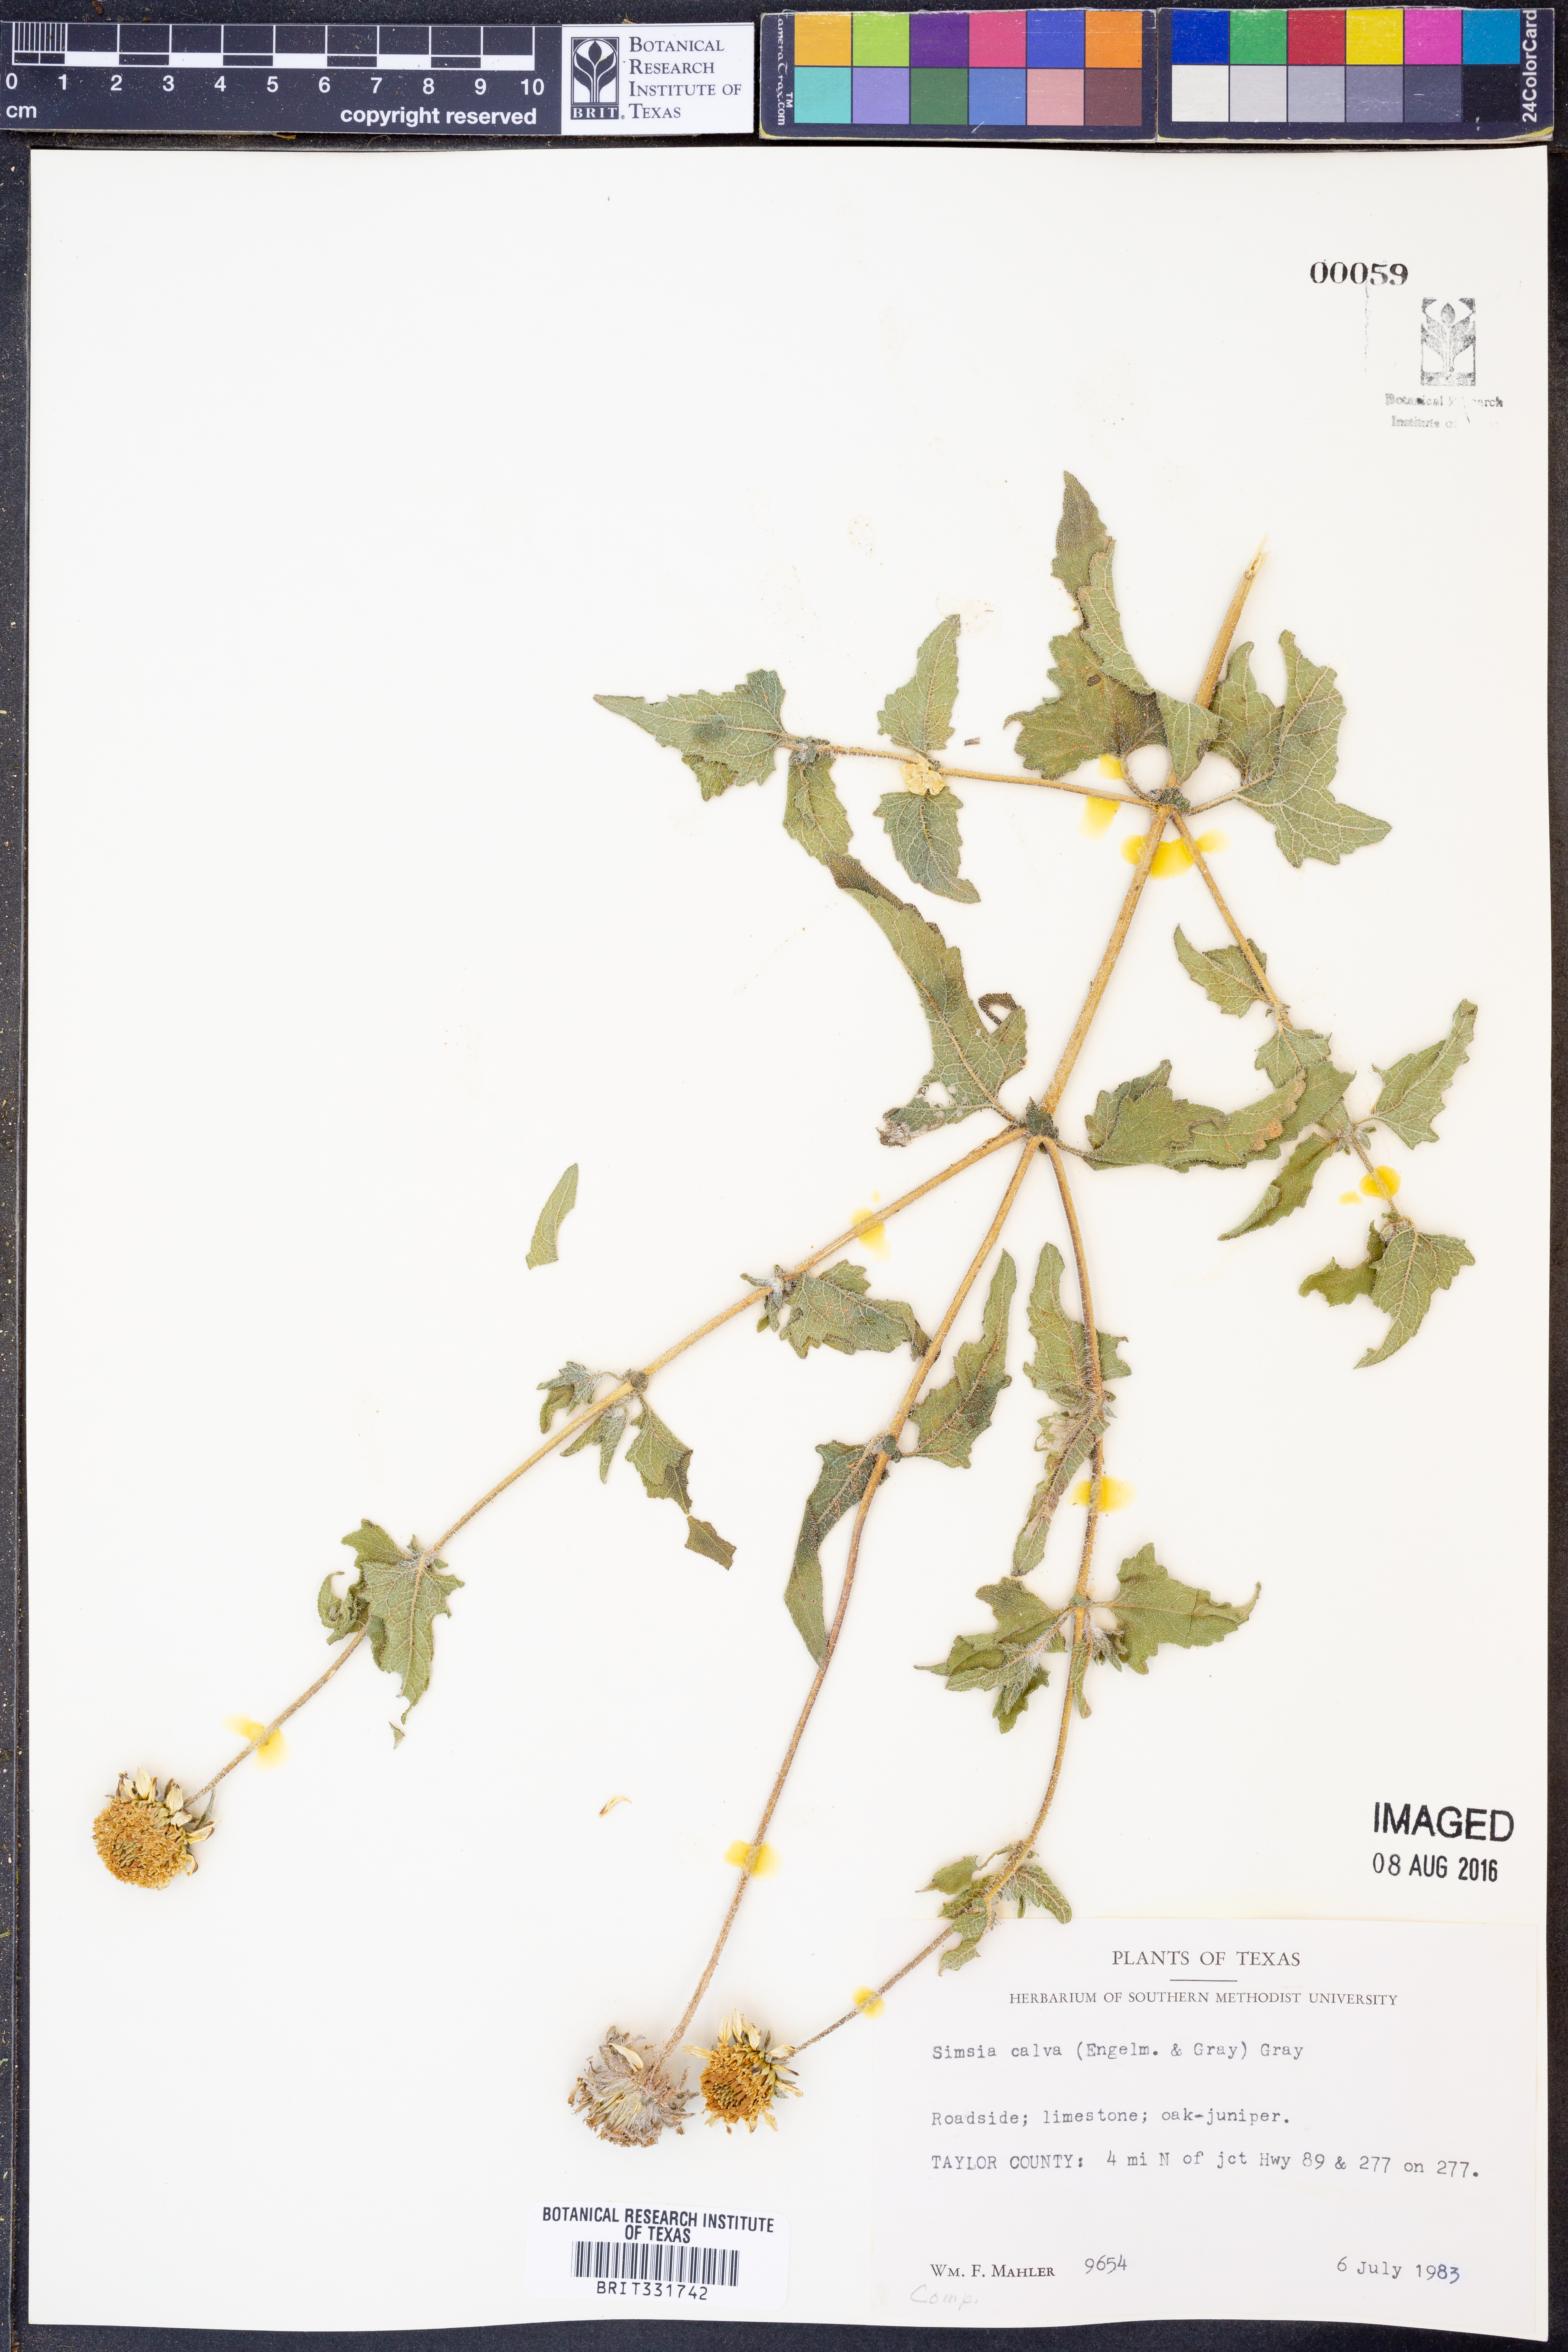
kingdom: Plantae
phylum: Tracheophyta
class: Magnoliopsida
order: Asterales
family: Asteraceae
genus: Simsia
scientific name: Simsia calva
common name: Awnless bush-sunflower
